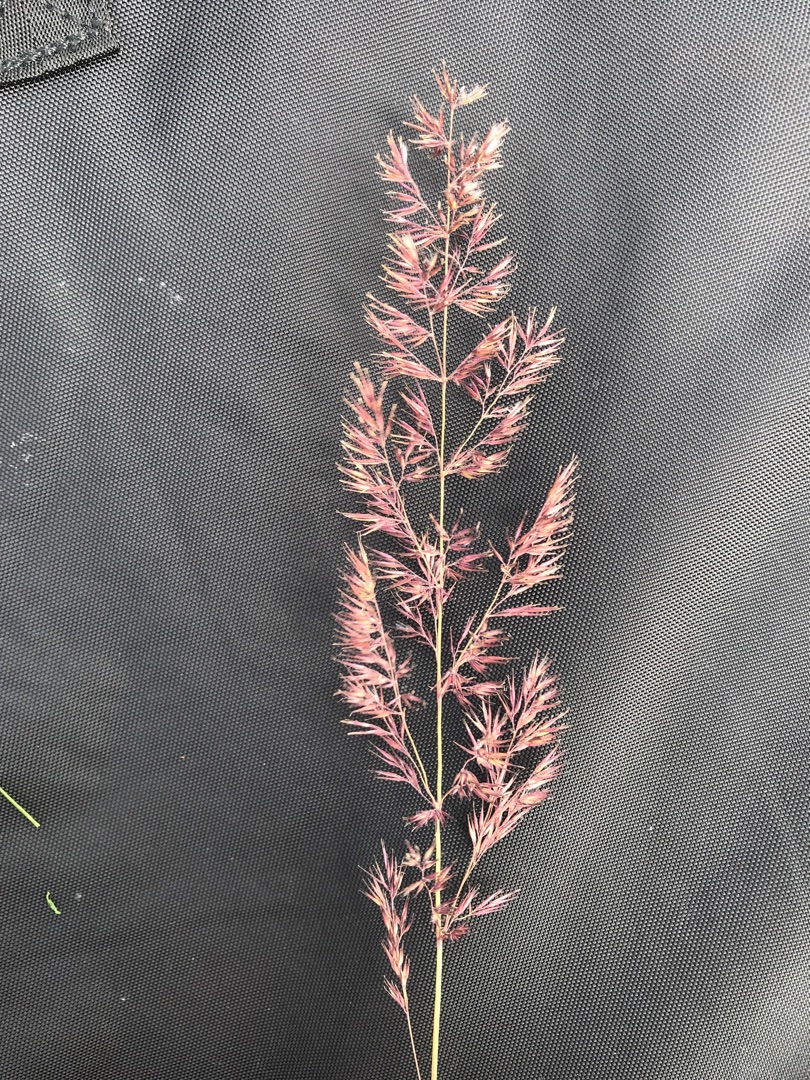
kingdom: Plantae
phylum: Tracheophyta
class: Liliopsida
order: Poales
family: Poaceae
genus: Calamagrostis
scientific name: Calamagrostis epigejos
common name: Bjerg-rørhvene
